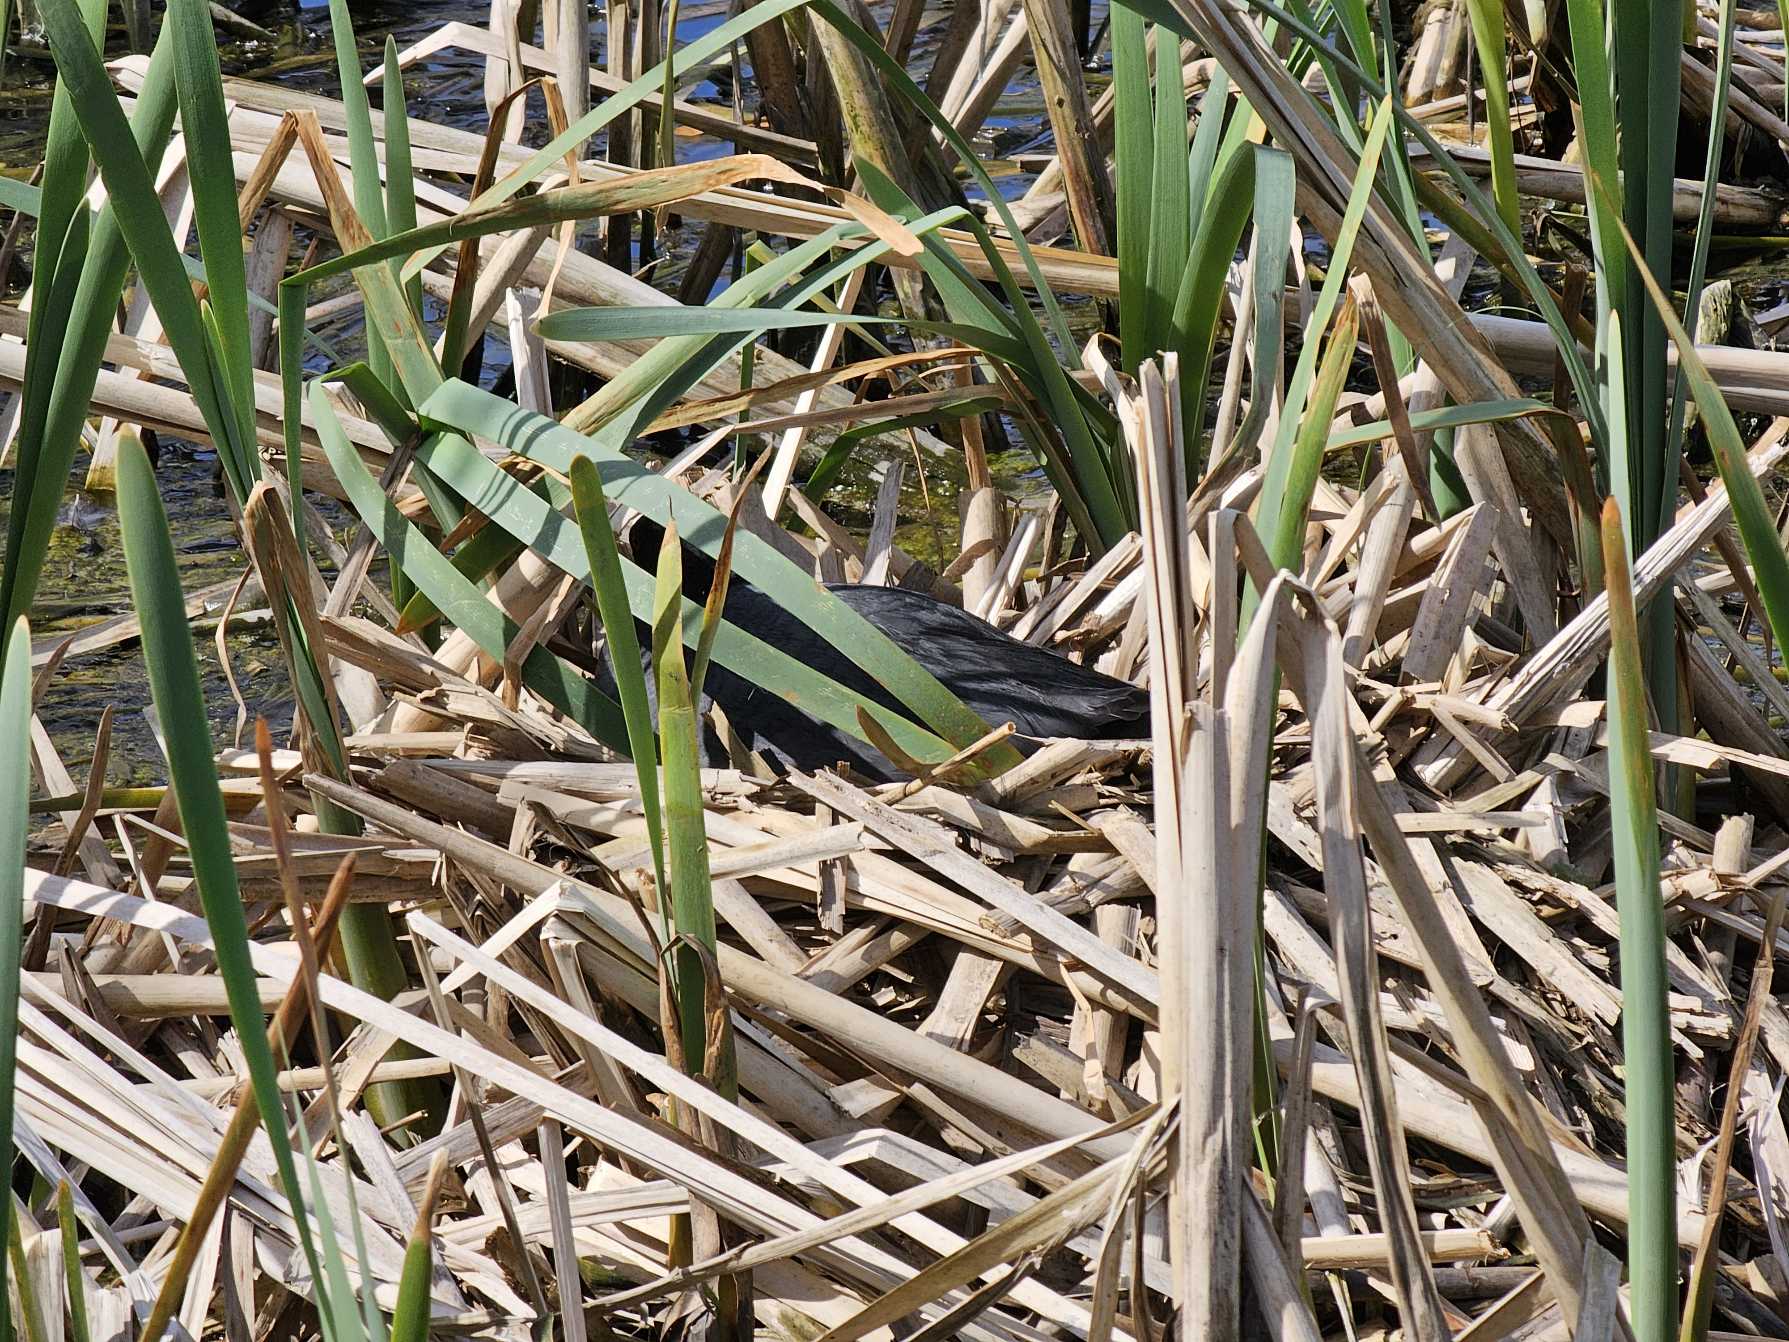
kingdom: Animalia
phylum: Chordata
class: Aves
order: Gruiformes
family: Rallidae
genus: Fulica
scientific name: Fulica atra
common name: Blishøne
